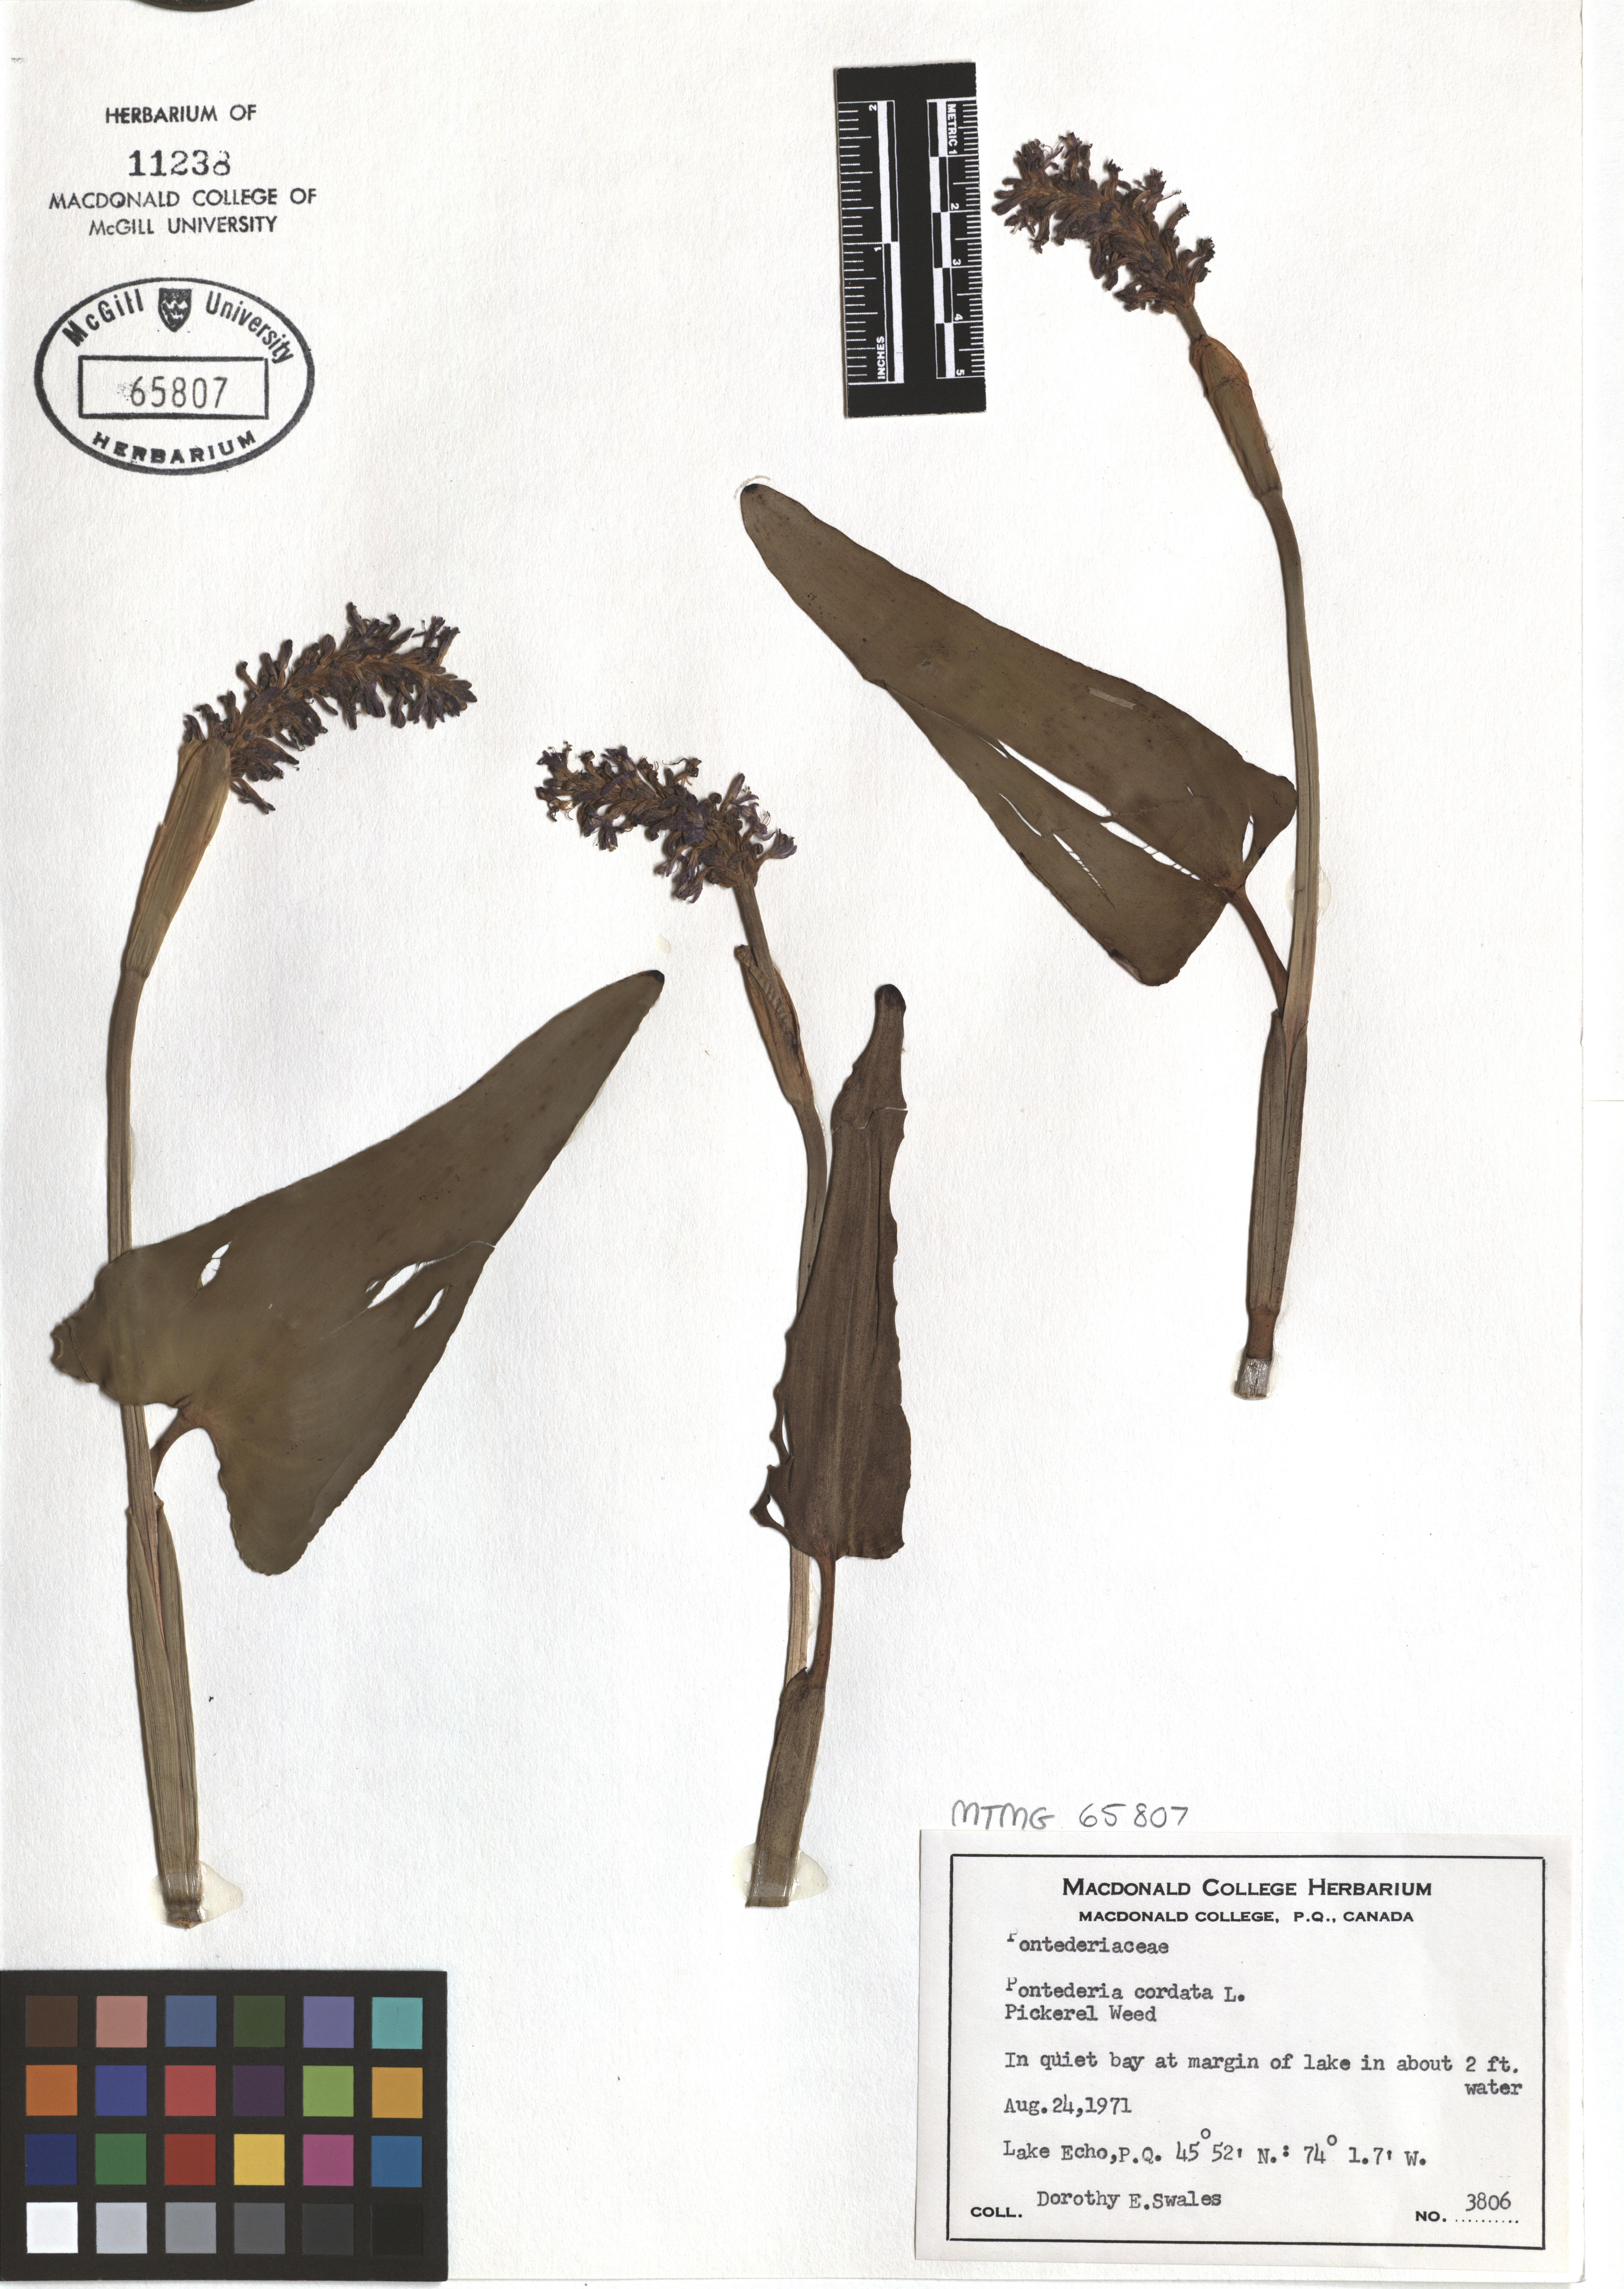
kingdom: Plantae
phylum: Tracheophyta
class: Liliopsida
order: Commelinales
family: Pontederiaceae
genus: Pontederia
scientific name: Pontederia cordata
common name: Pickerelweed
